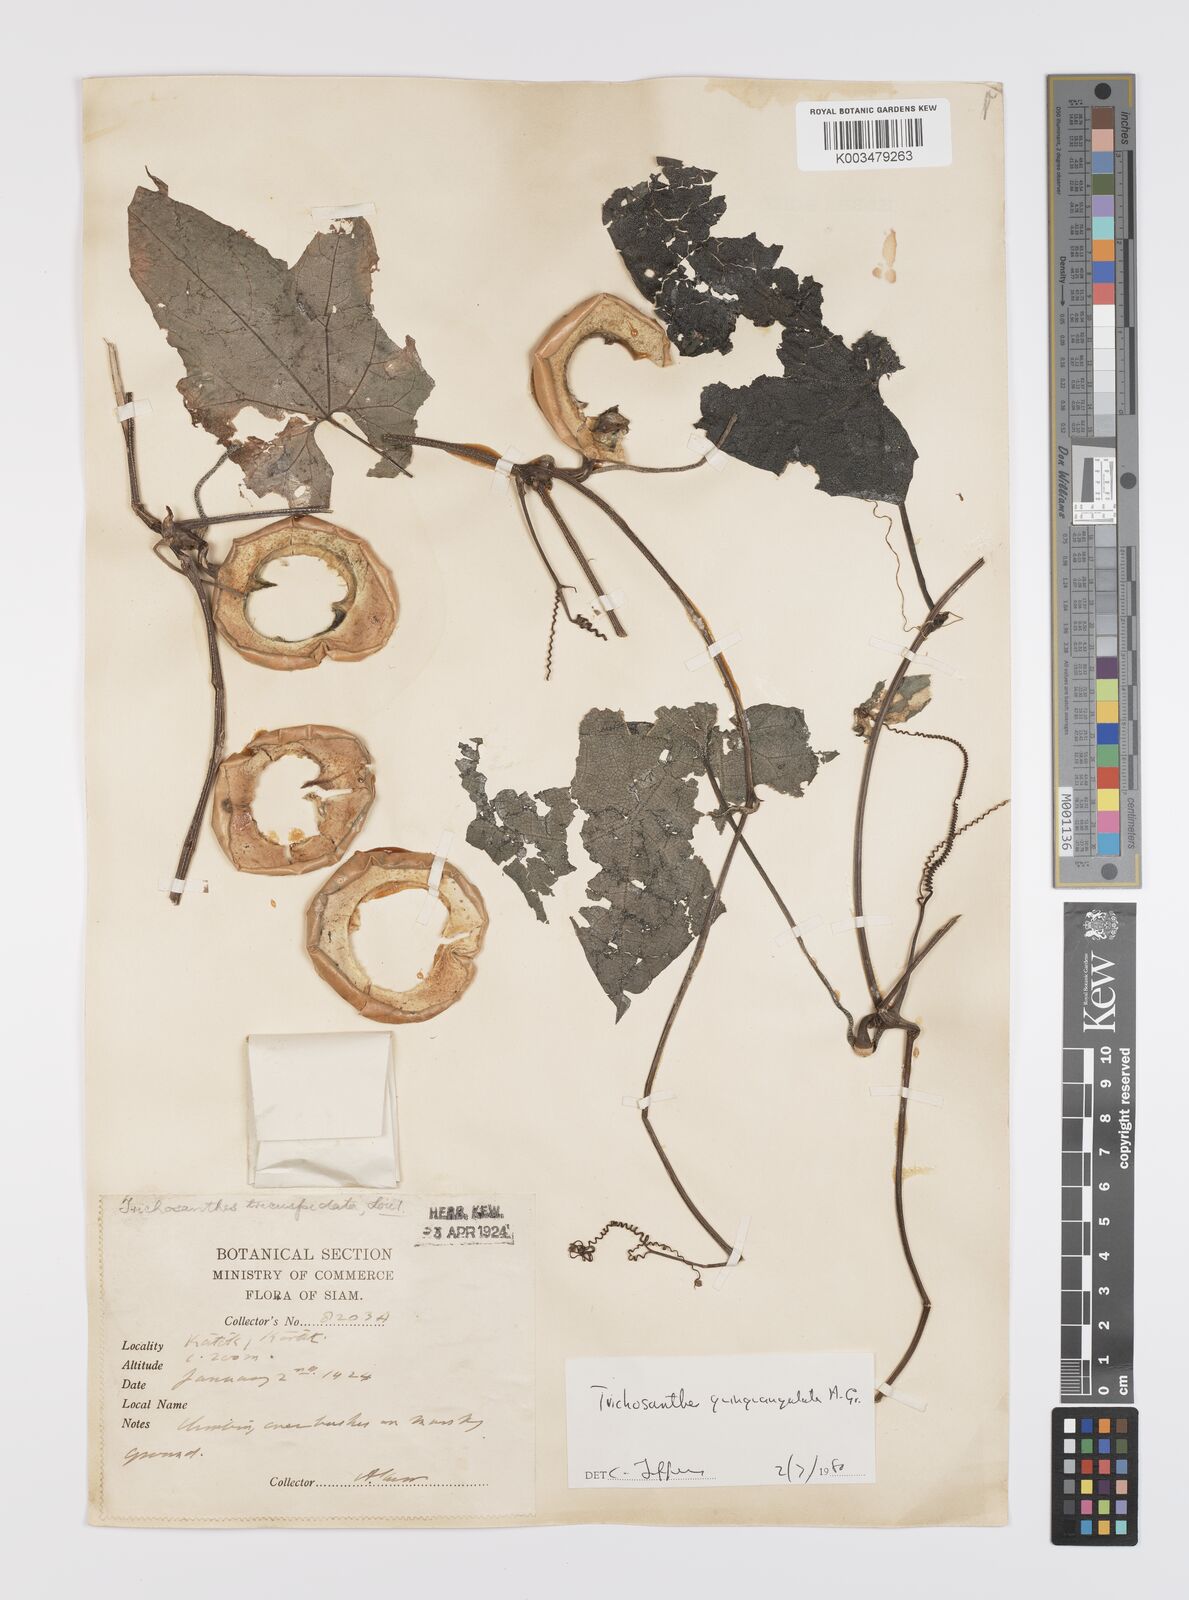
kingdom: Plantae
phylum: Tracheophyta
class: Magnoliopsida
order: Cucurbitales
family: Cucurbitaceae
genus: Trichosanthes
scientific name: Trichosanthes quinquangulata
